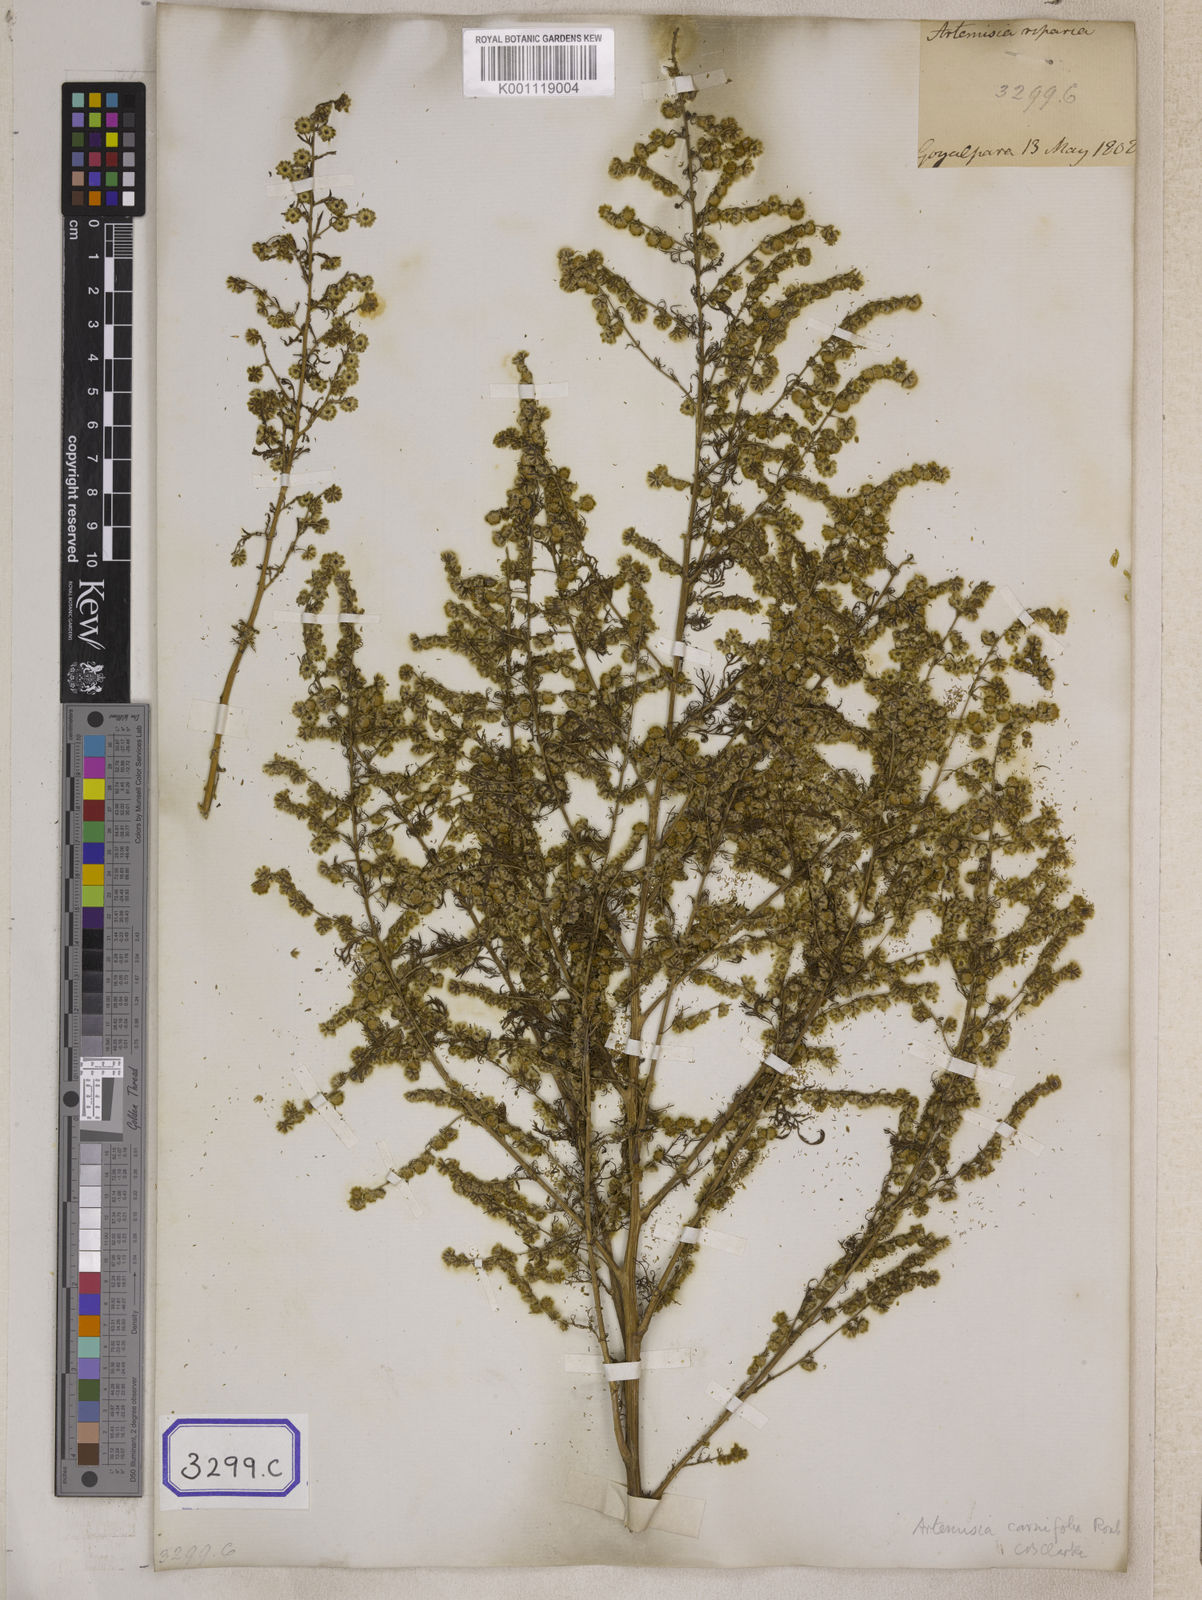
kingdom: Plantae
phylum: Tracheophyta
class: Magnoliopsida
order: Asterales
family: Asteraceae
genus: Artemisia
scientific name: Artemisia
